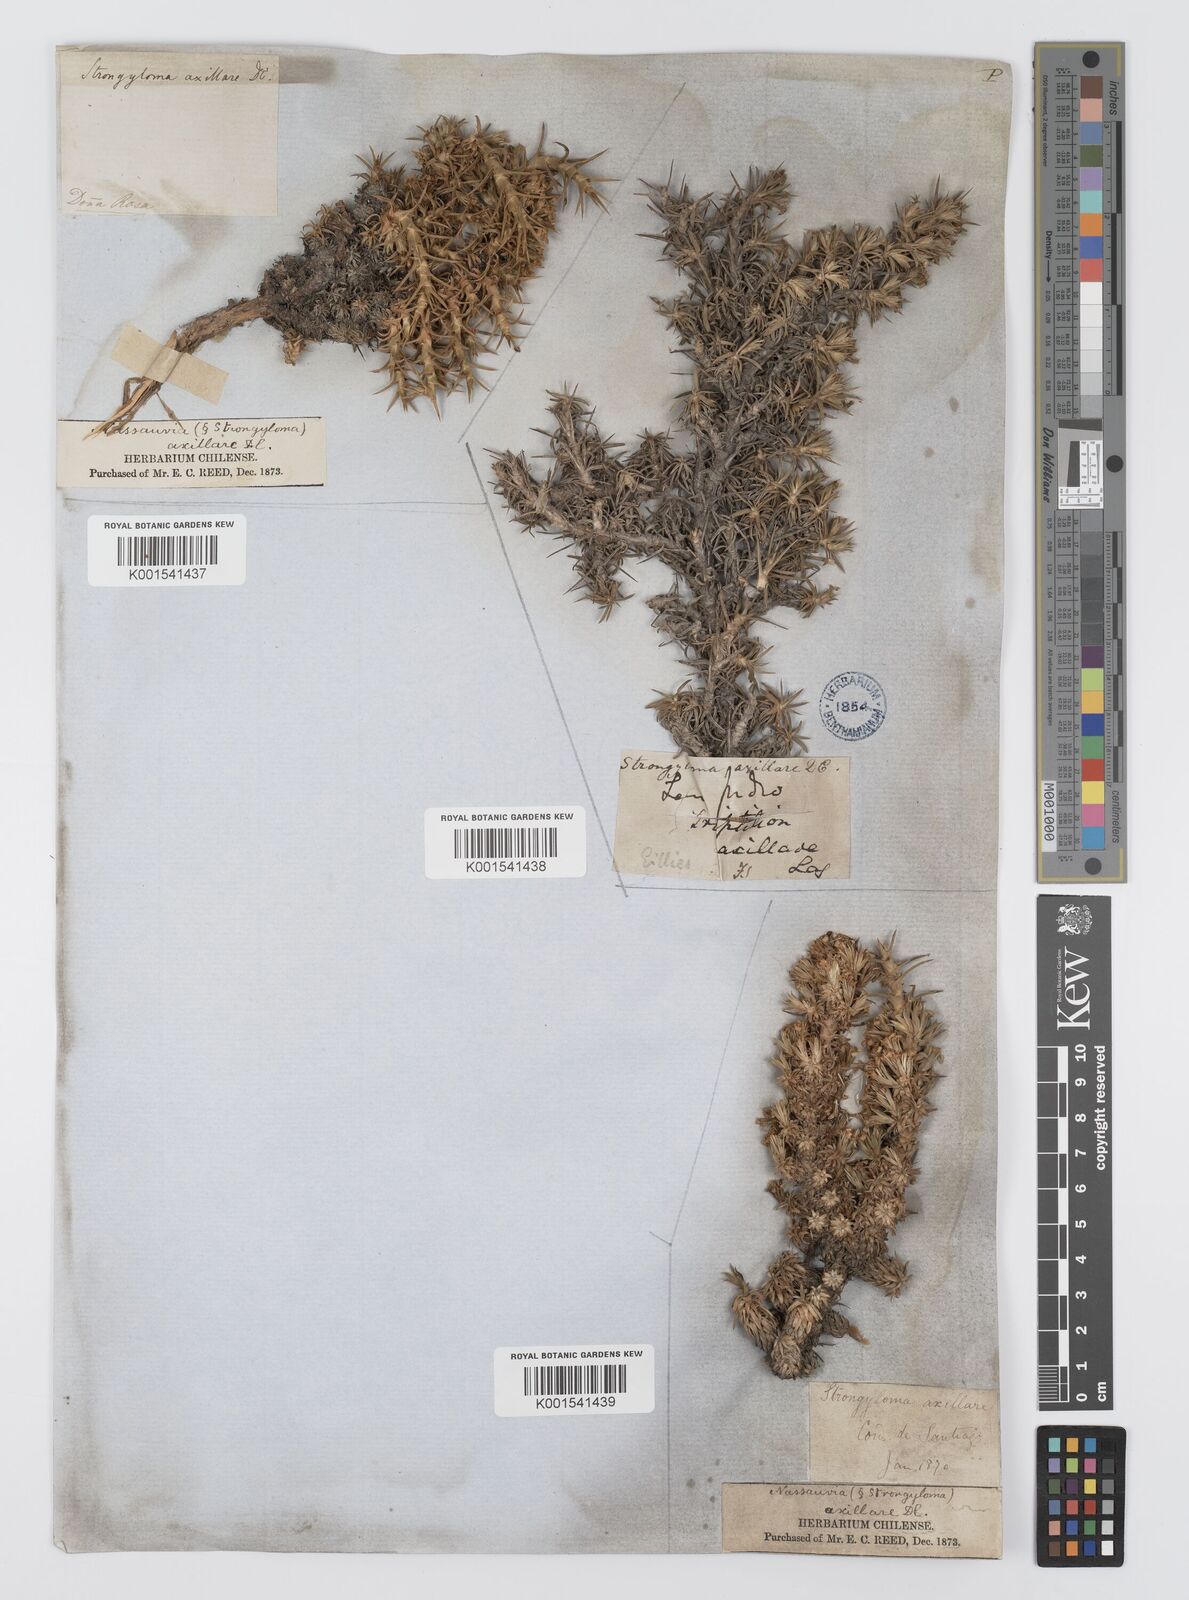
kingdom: Plantae
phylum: Tracheophyta
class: Magnoliopsida
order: Asterales
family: Asteraceae
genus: Nassauvia
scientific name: Nassauvia axillaris
